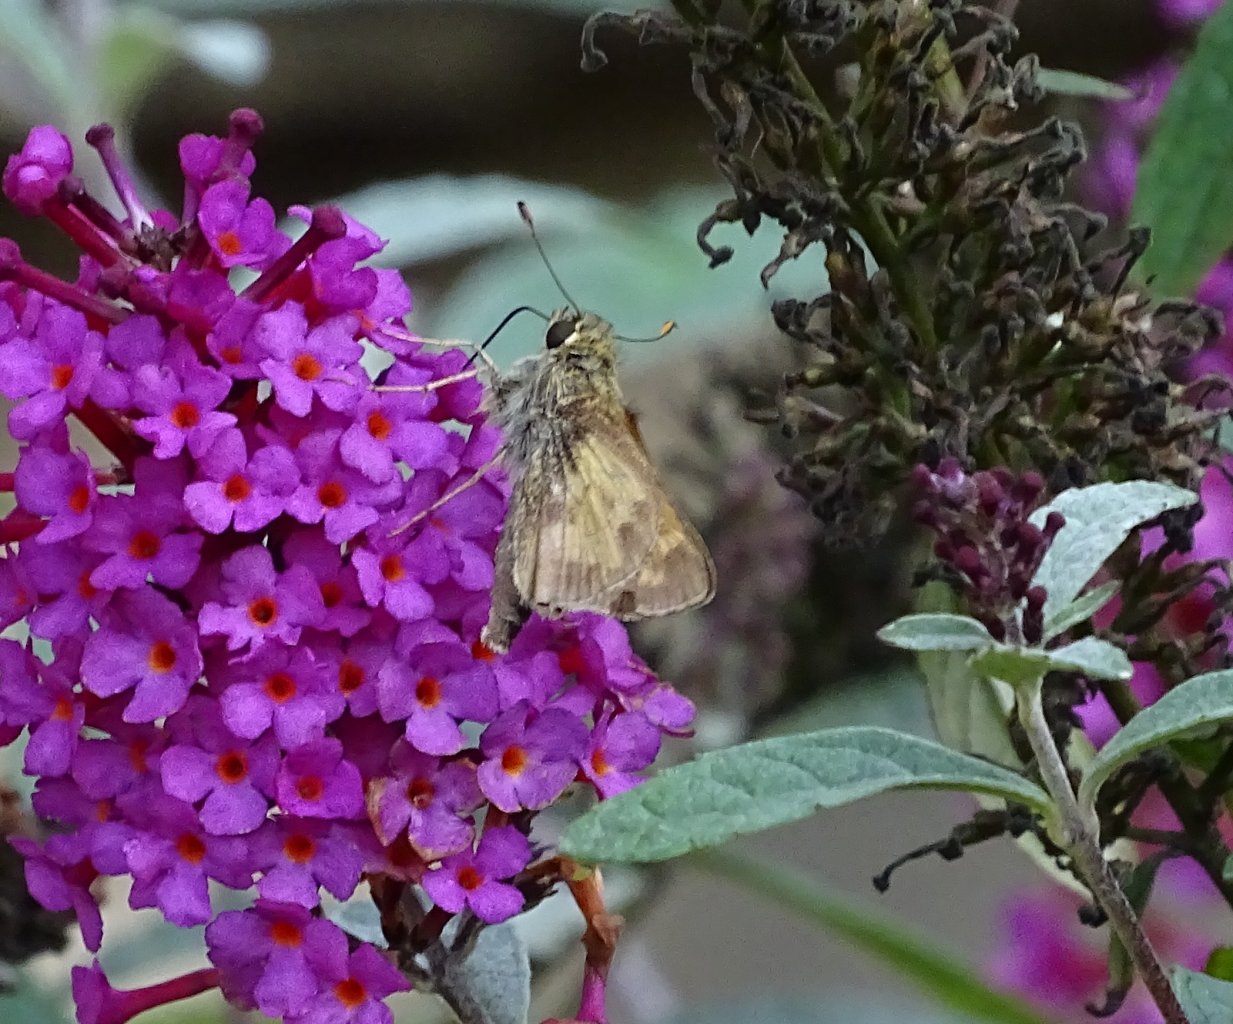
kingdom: Animalia
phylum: Arthropoda
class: Insecta
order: Lepidoptera
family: Hesperiidae
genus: Atalopedes
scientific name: Atalopedes campestris
